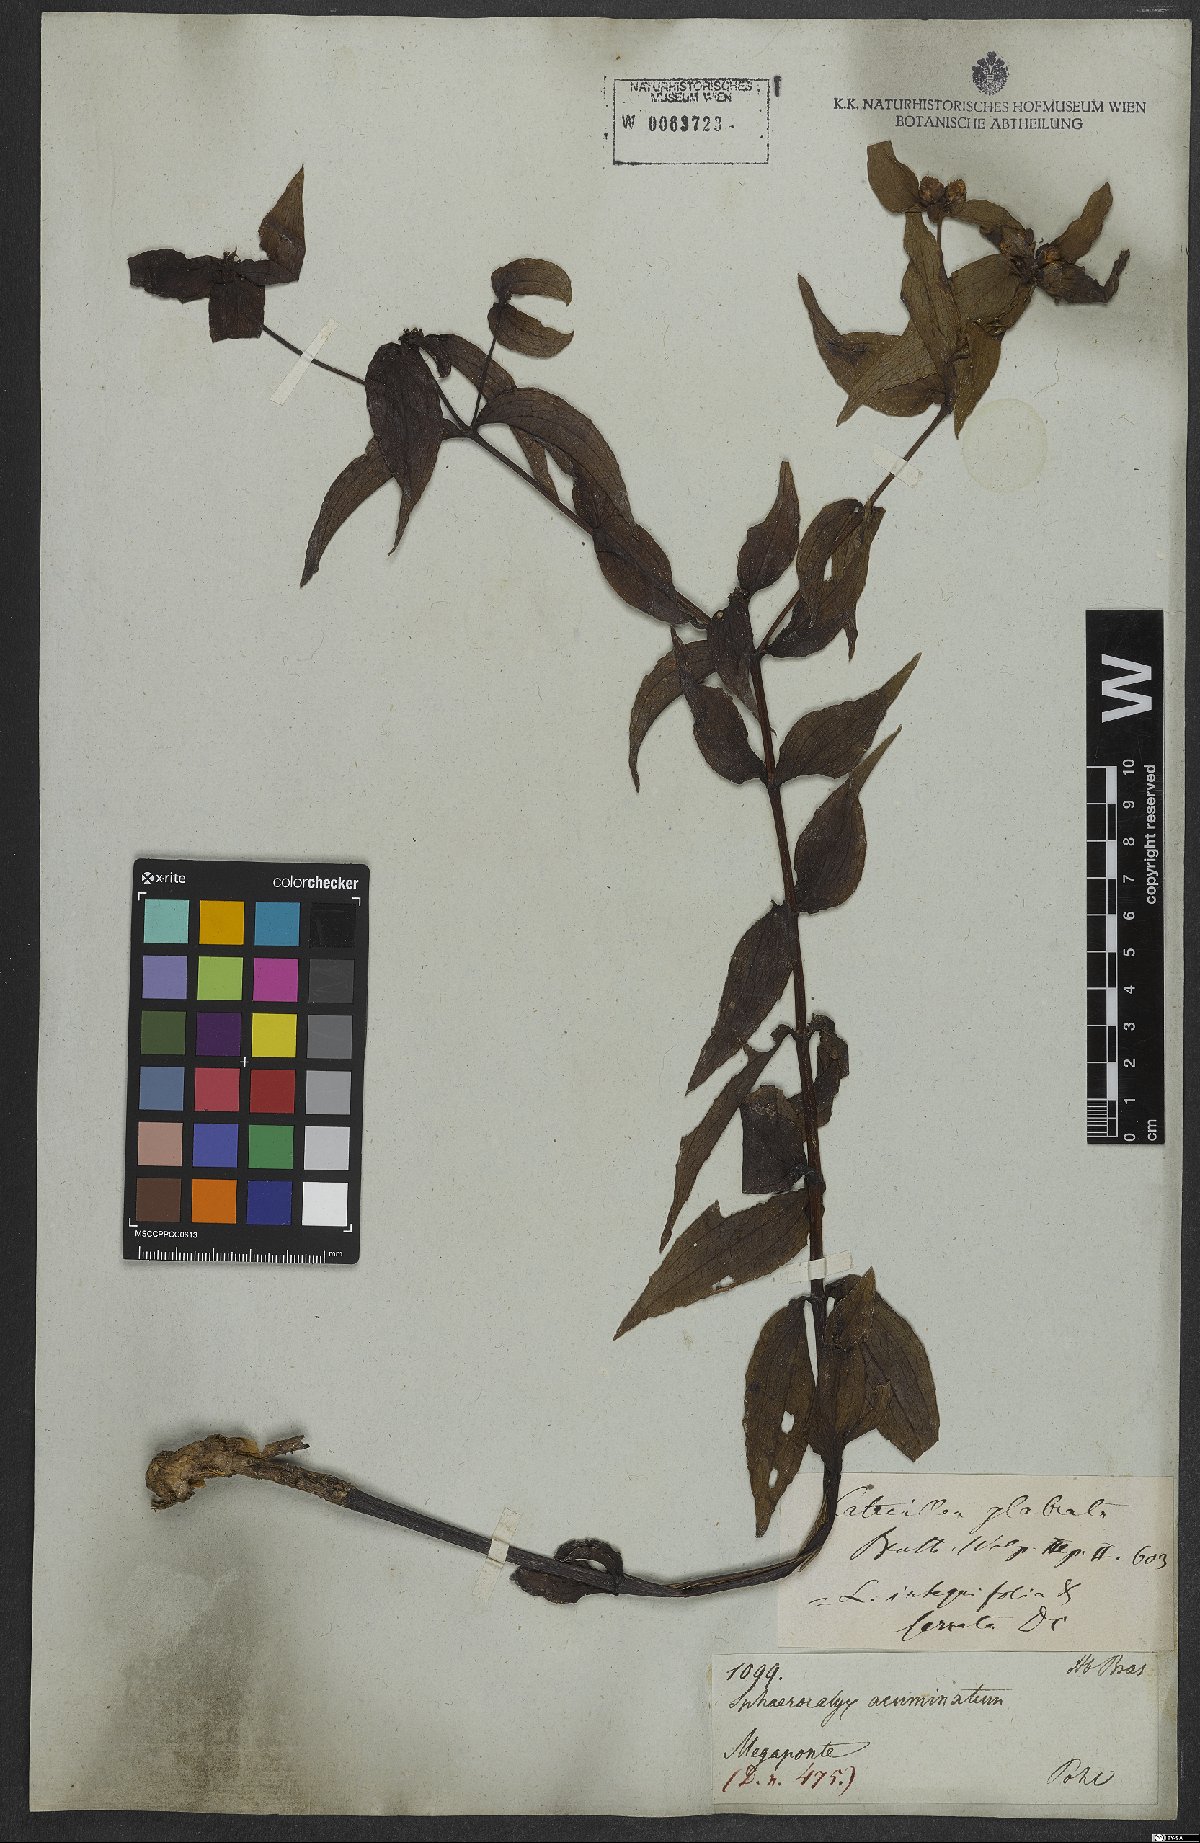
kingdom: Plantae
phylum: Tracheophyta
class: Magnoliopsida
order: Asterales
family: Asteraceae
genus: Ichthyothere
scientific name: Ichthyothere cunabi
